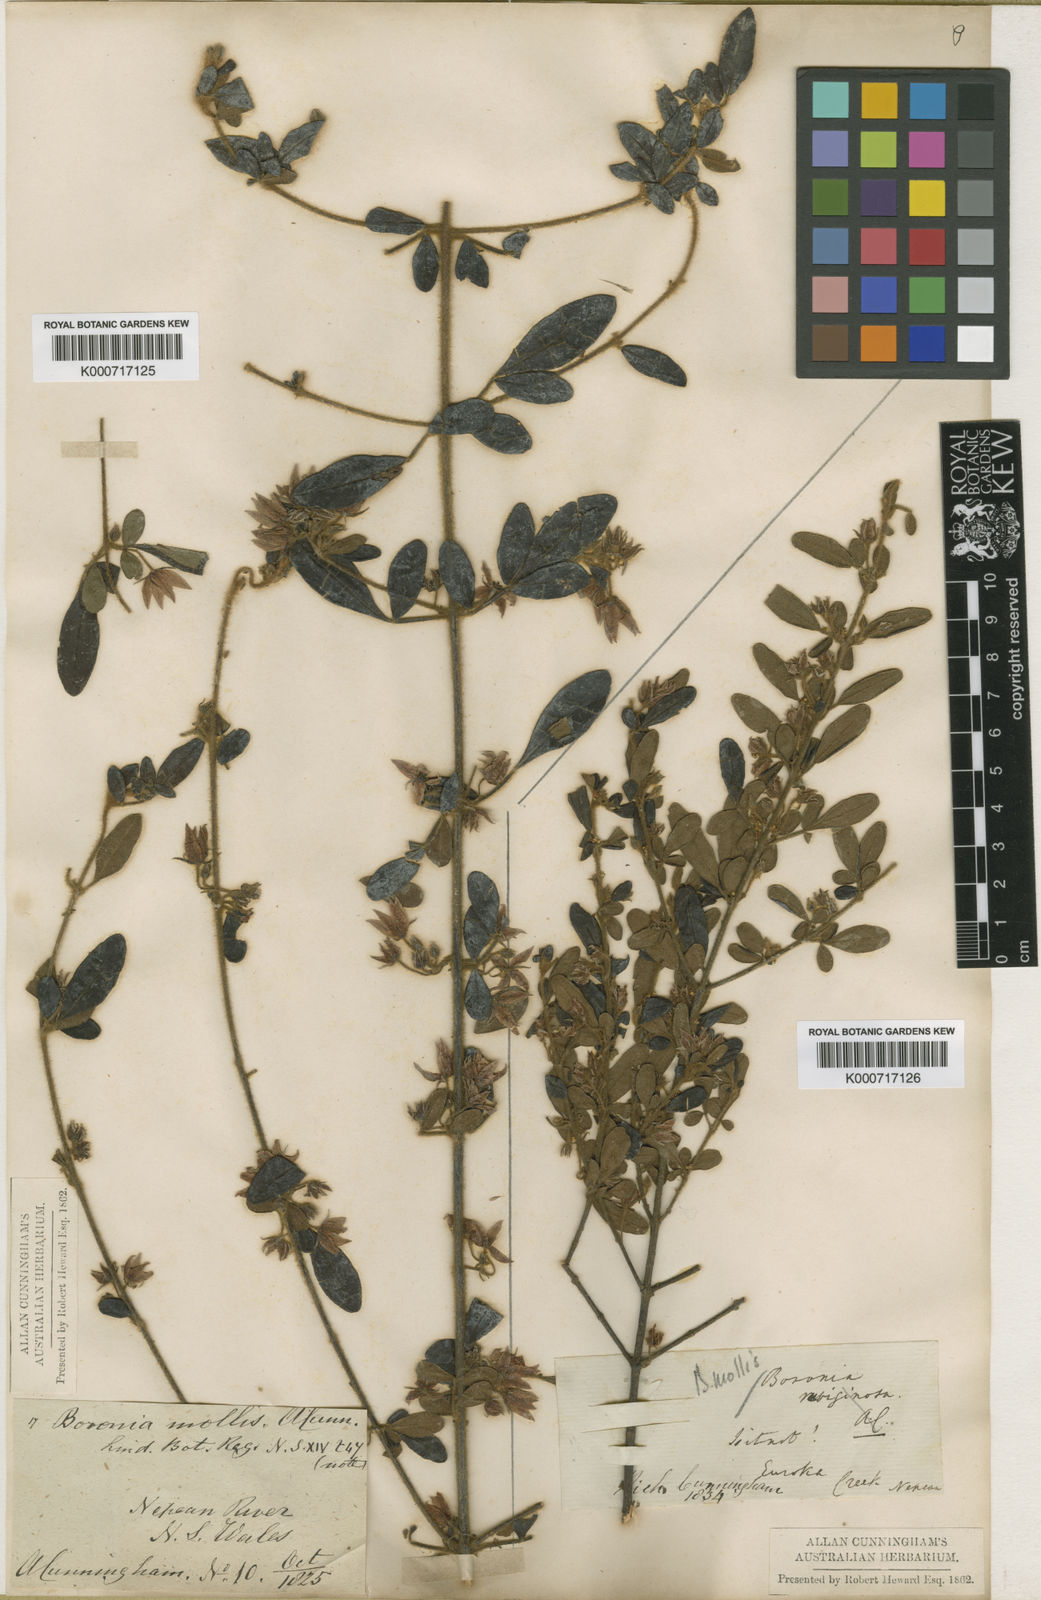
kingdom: Plantae
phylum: Tracheophyta
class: Magnoliopsida
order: Sapindales
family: Rutaceae
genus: Boronia
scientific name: Boronia mollis
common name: Soft boronia
